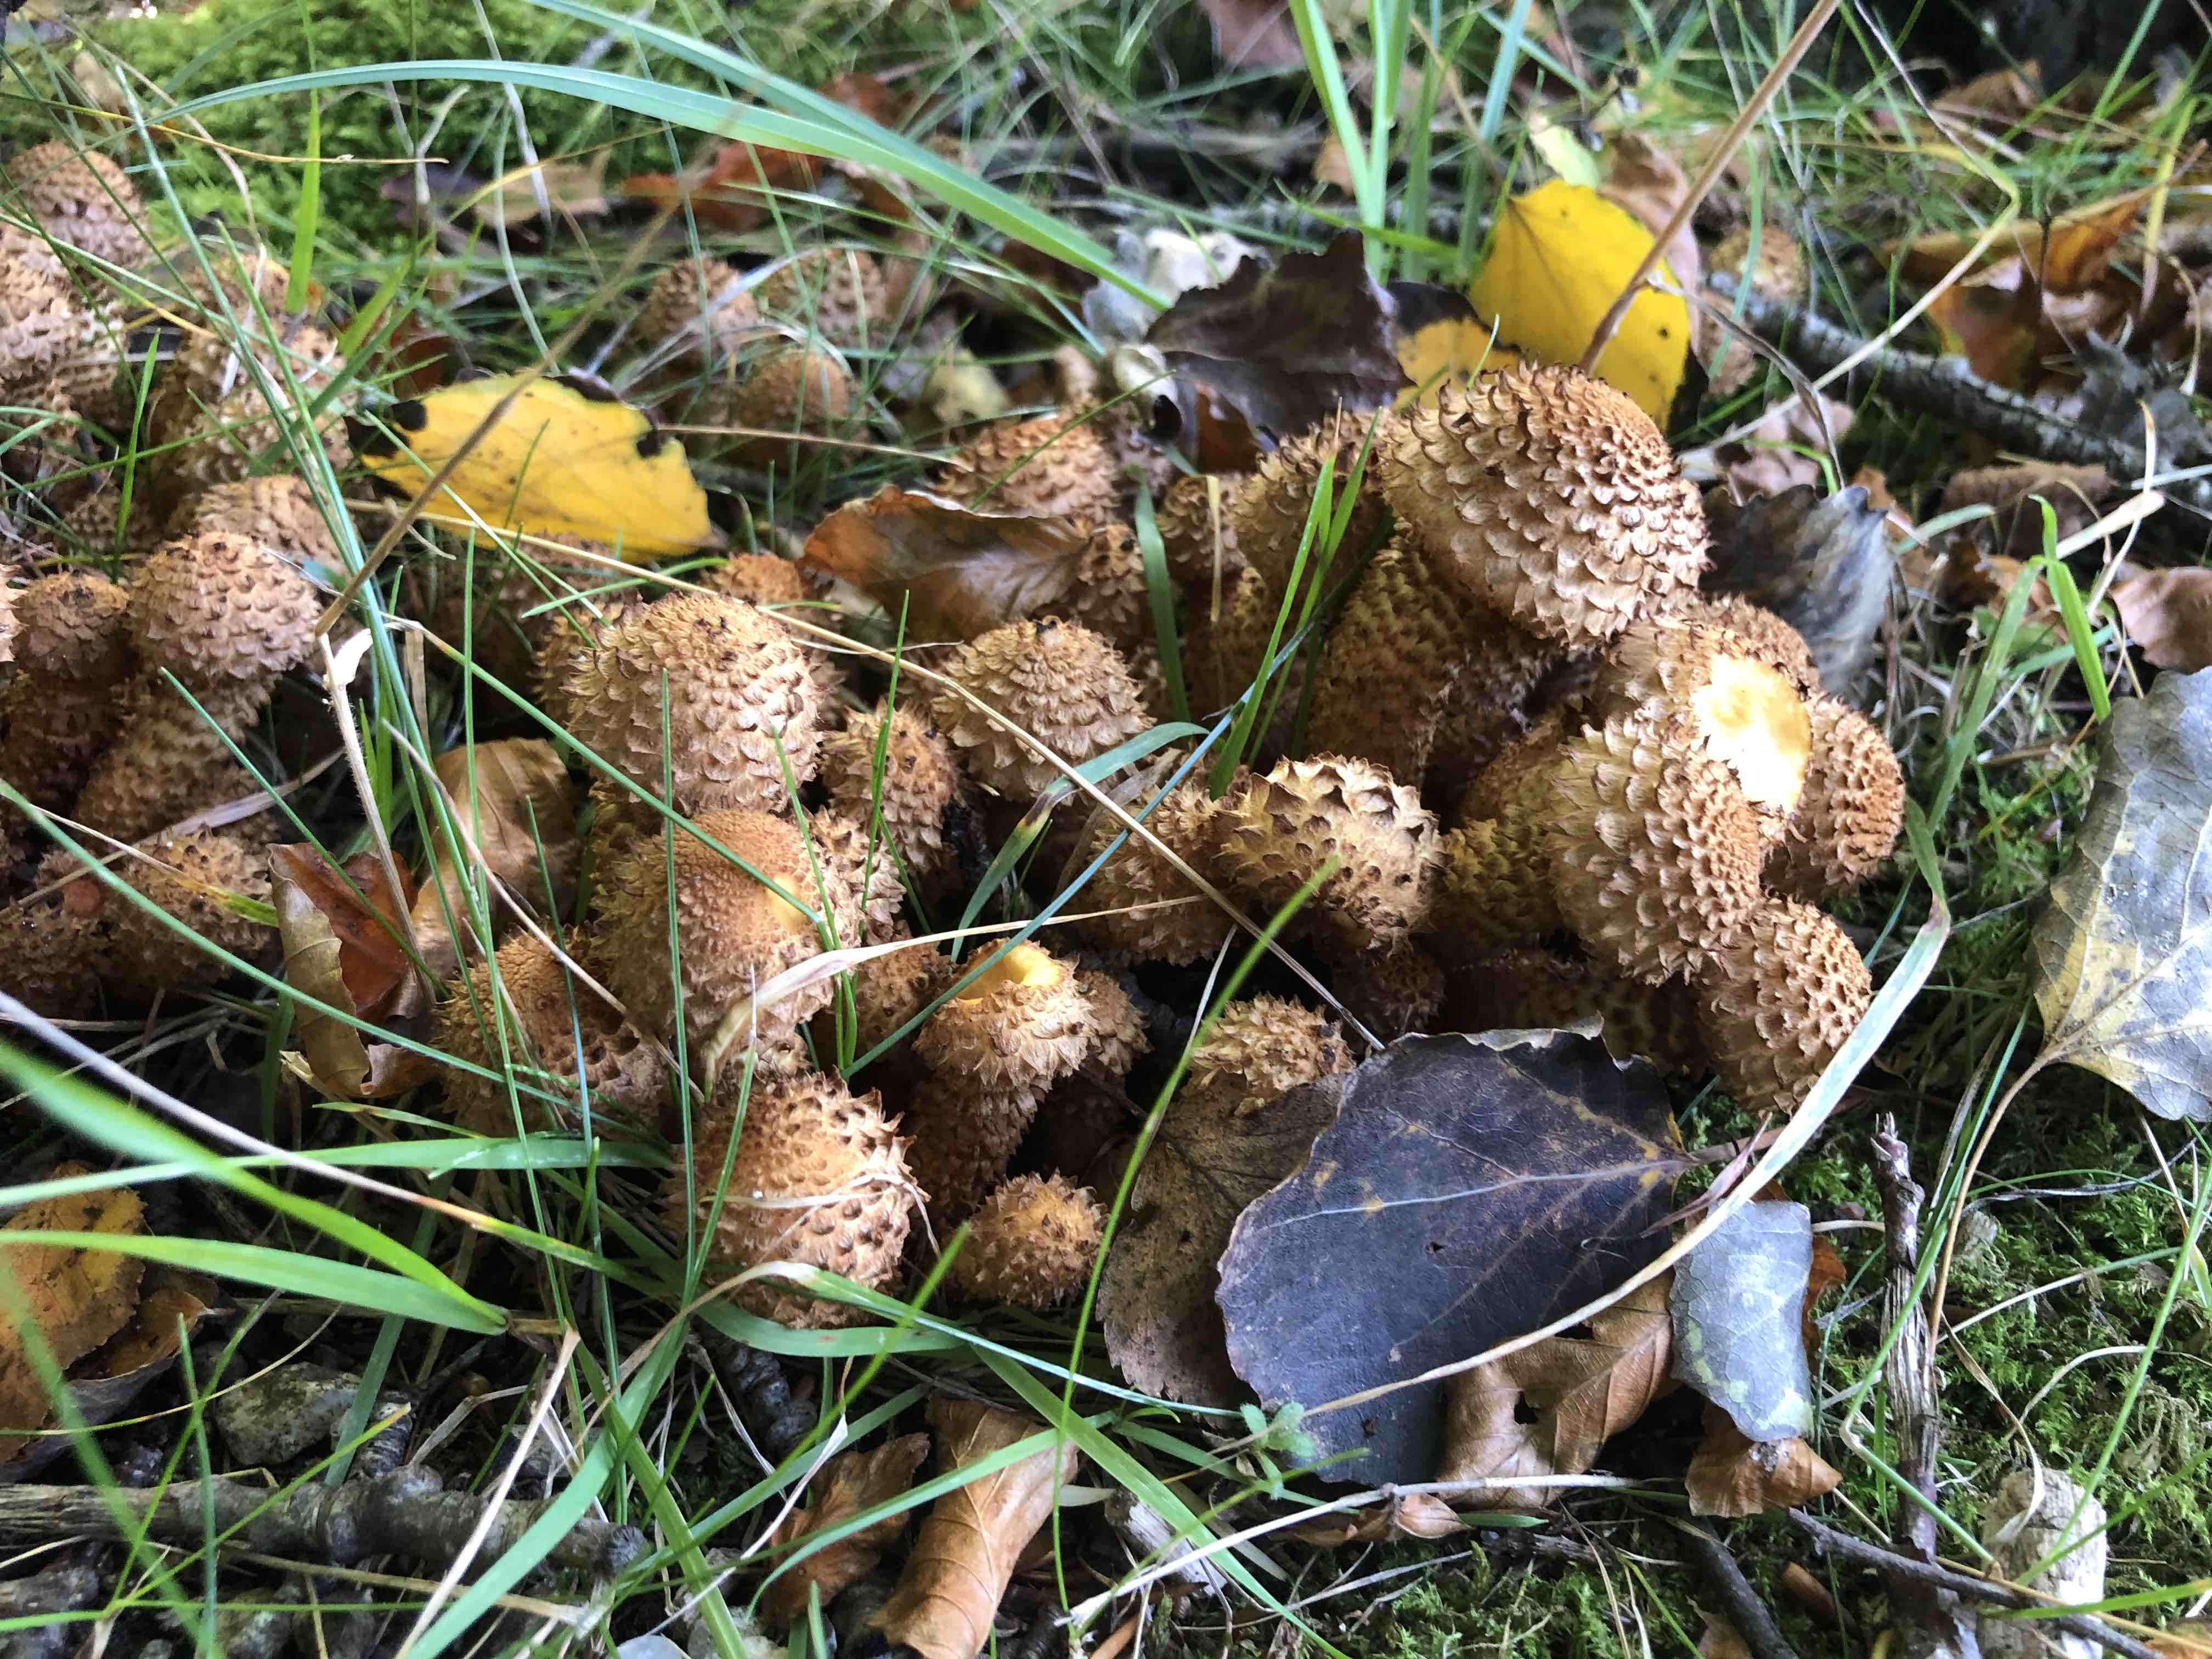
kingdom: Fungi
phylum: Basidiomycota
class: Agaricomycetes
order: Agaricales
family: Strophariaceae
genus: Pholiota
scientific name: Pholiota squarrosa
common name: krumskællet skælhat
